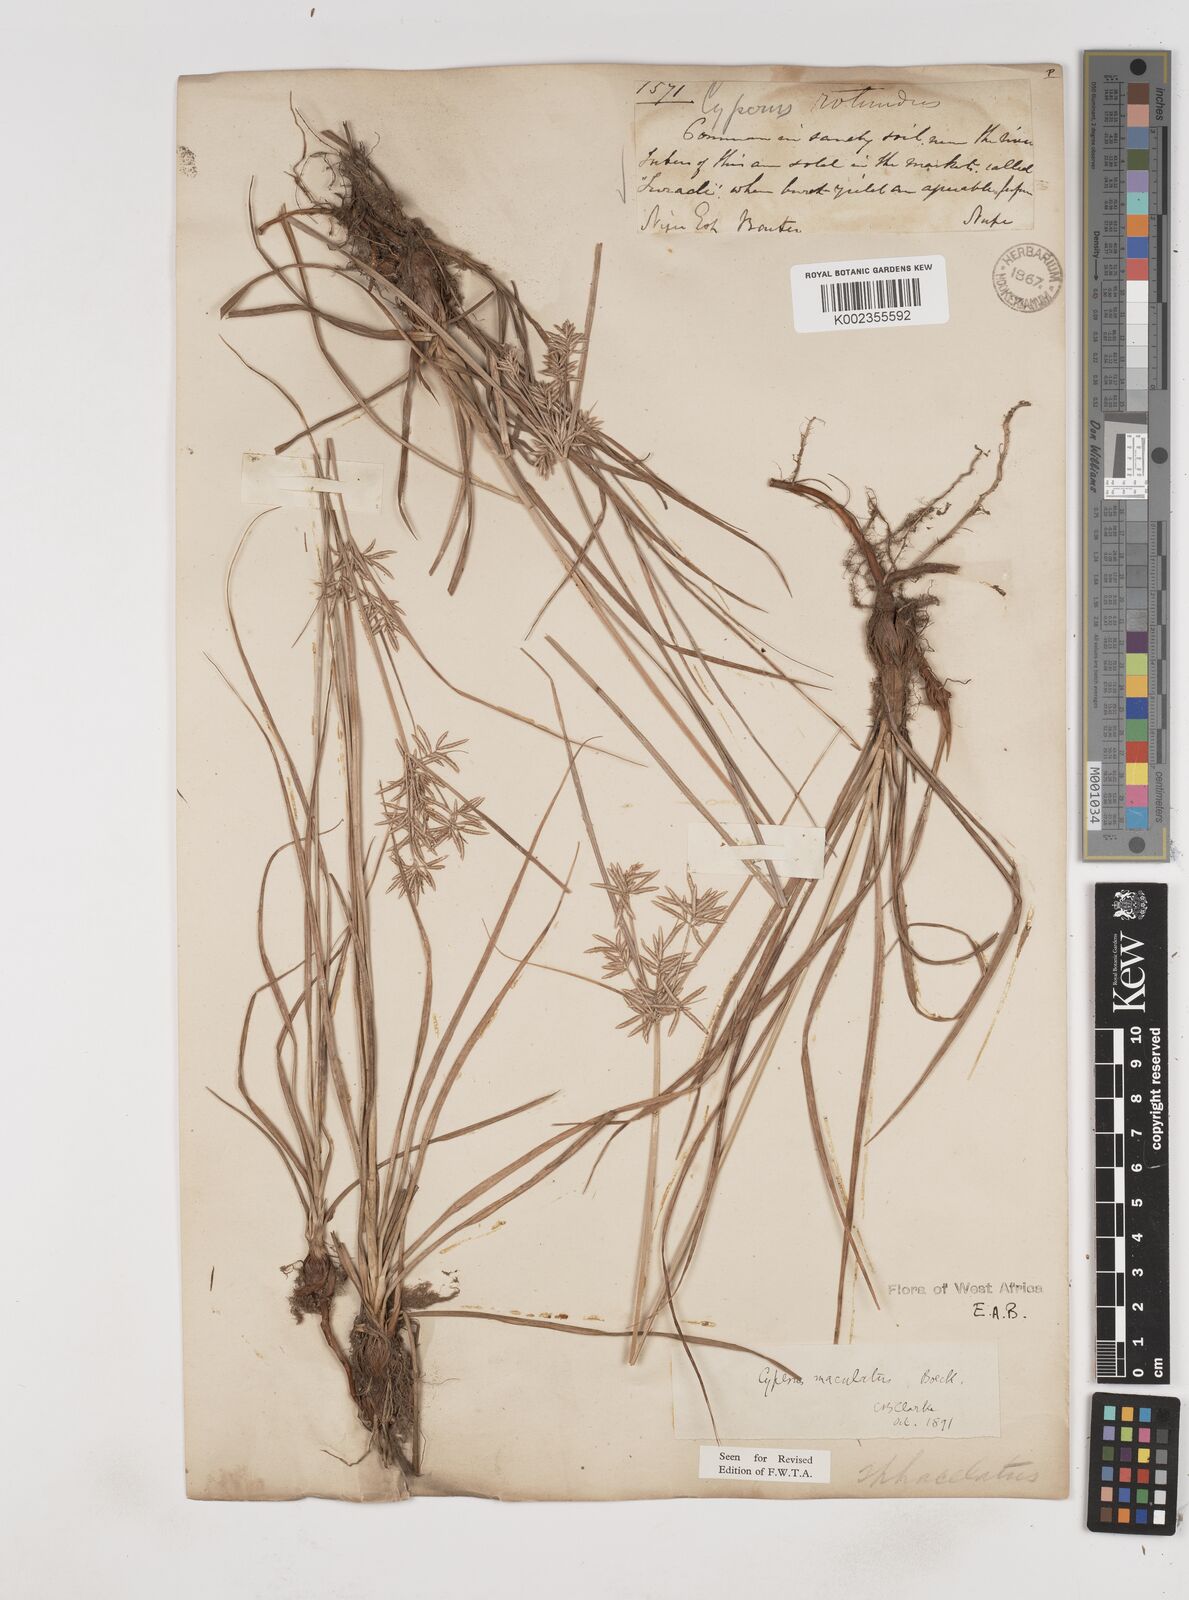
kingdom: Plantae
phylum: Tracheophyta
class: Liliopsida
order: Poales
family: Cyperaceae
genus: Cyperus
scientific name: Cyperus maculatus
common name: Maculated sedge
